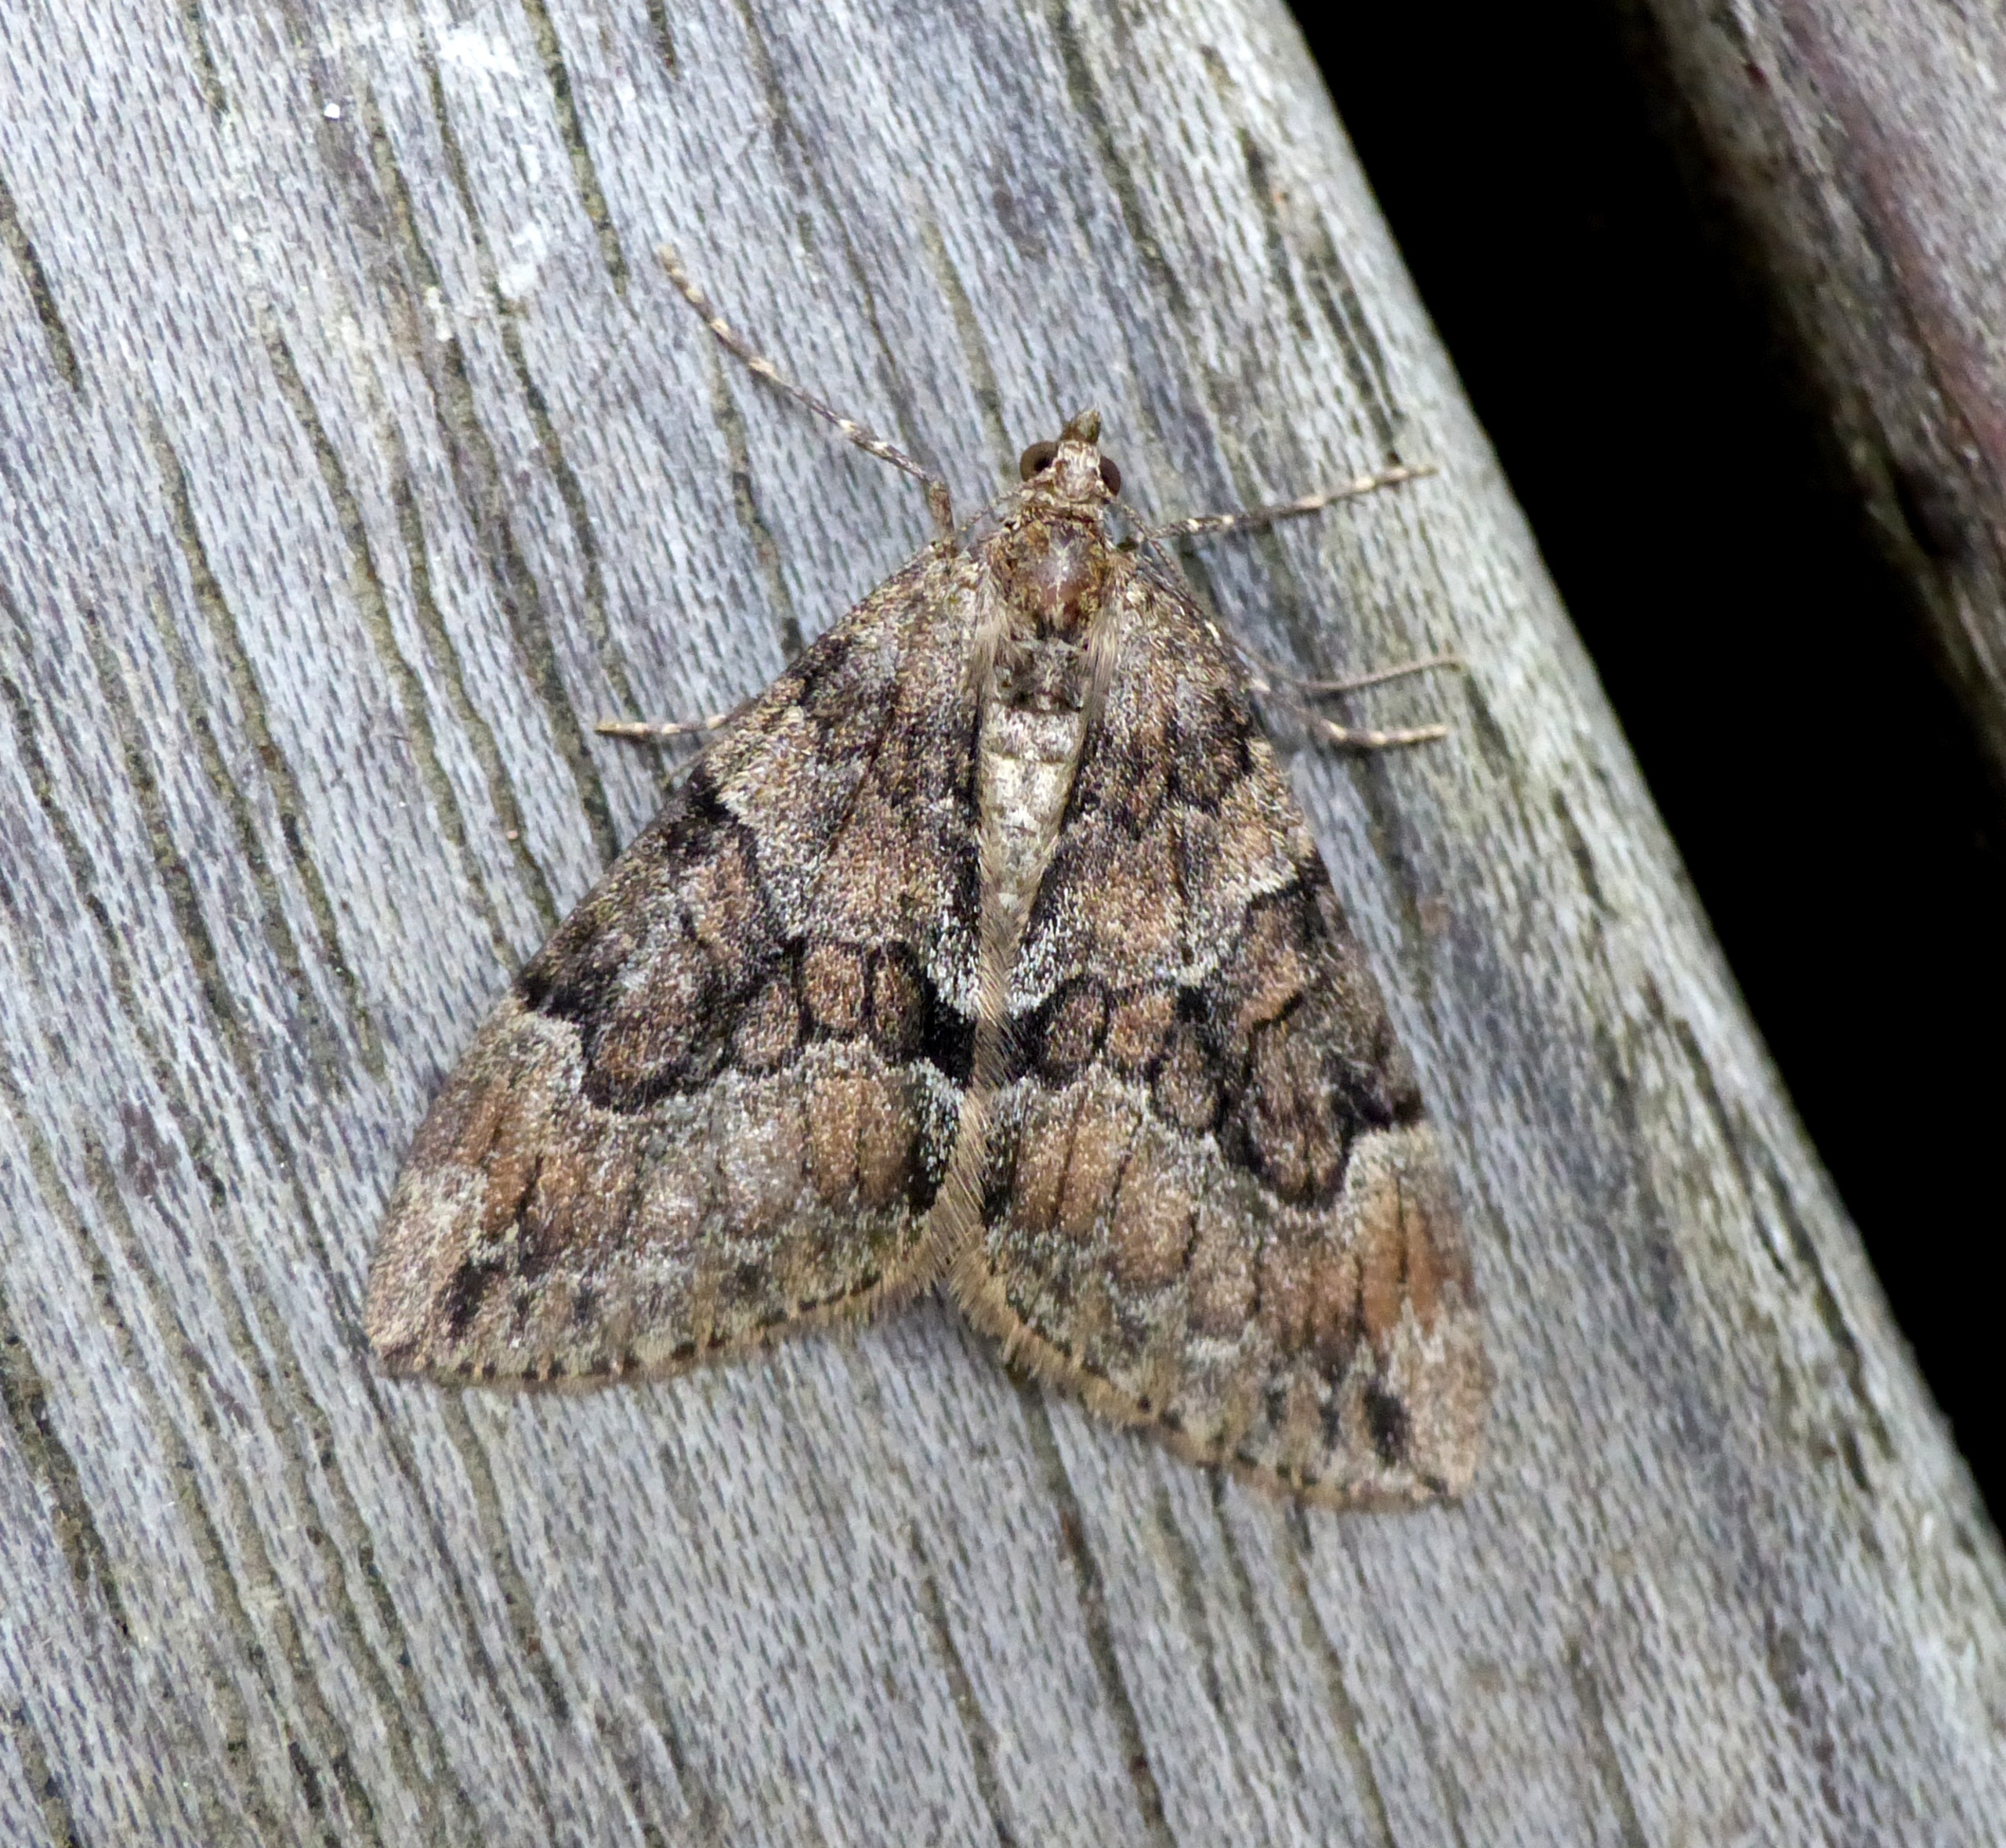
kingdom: Animalia
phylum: Arthropoda
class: Insecta
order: Lepidoptera
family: Geometridae
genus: Thera
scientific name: Thera britannica
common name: Ædelgranmåler
